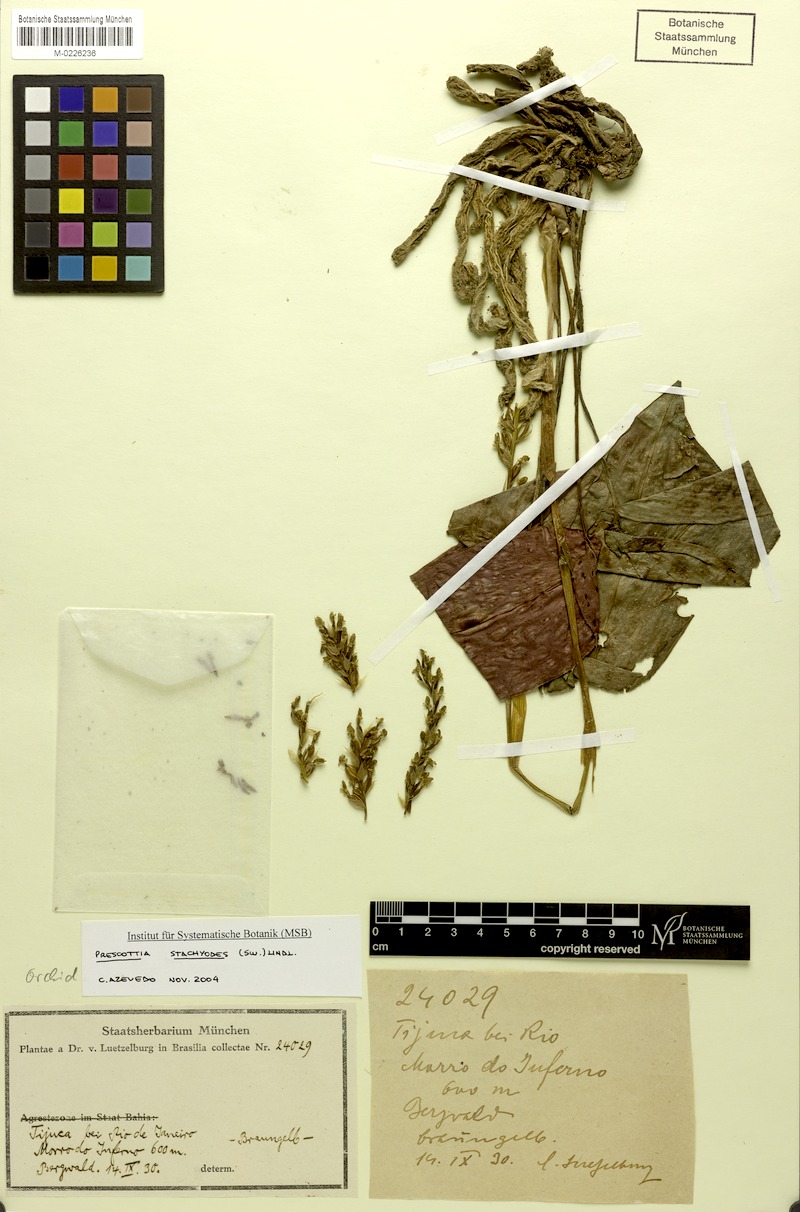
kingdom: Plantae
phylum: Tracheophyta
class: Liliopsida
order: Asparagales
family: Orchidaceae
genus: Prescottia
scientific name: Prescottia stachyodes
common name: Mountain prescott orchid
